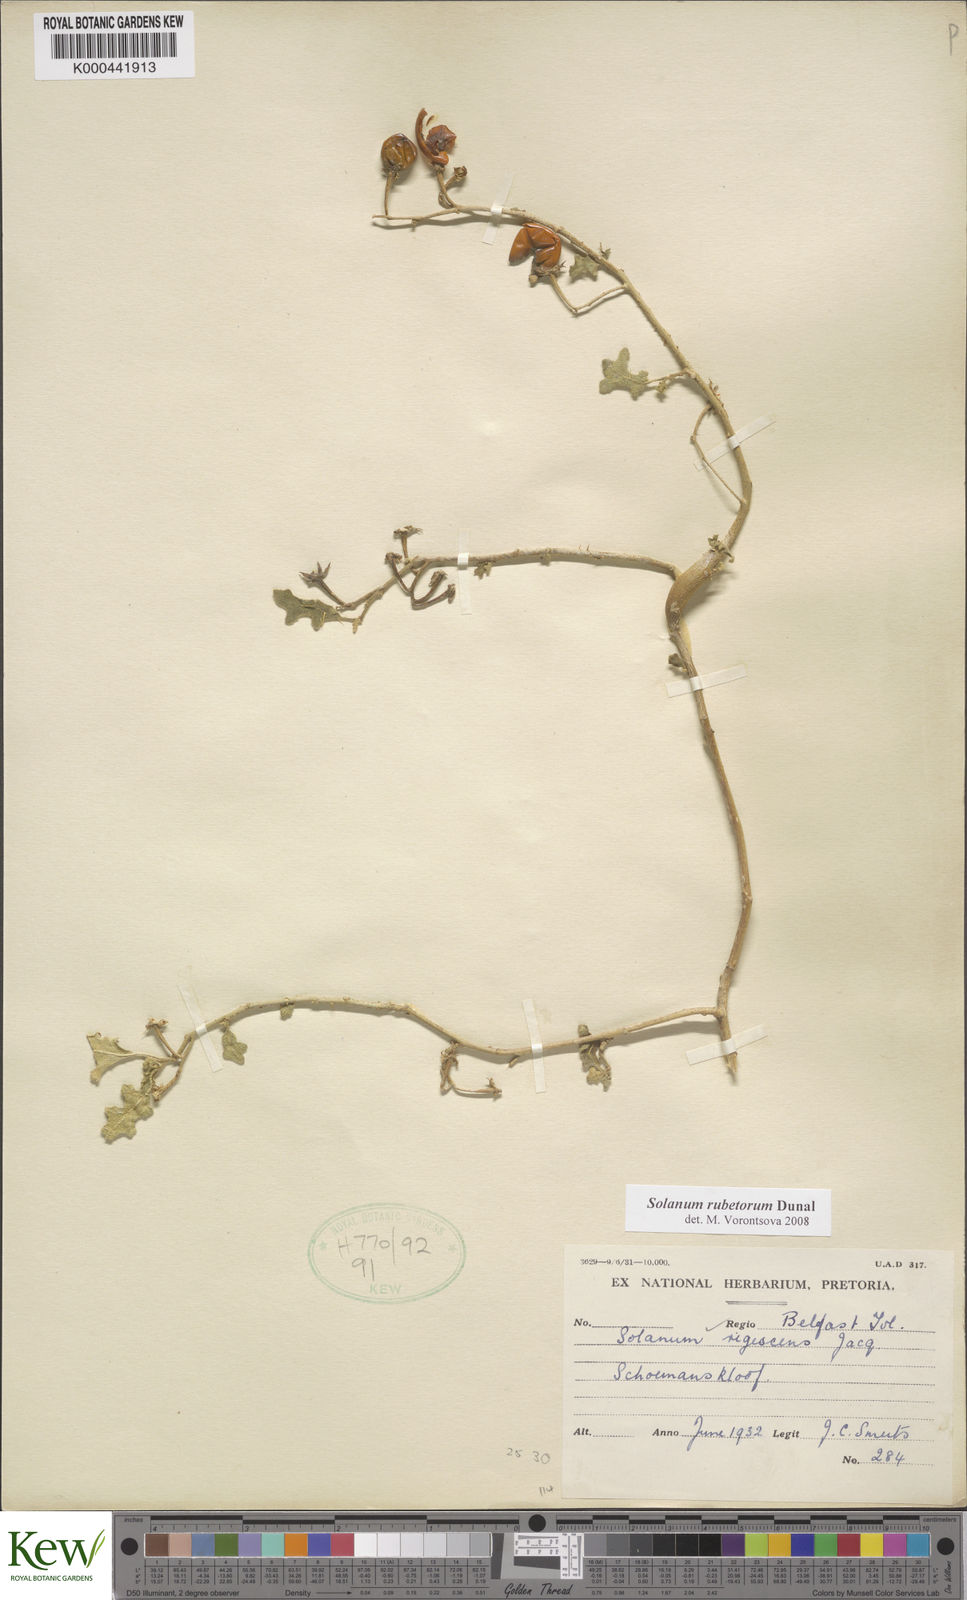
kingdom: Plantae
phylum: Tracheophyta
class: Magnoliopsida
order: Solanales
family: Solanaceae
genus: Solanum
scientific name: Solanum rubetorum
